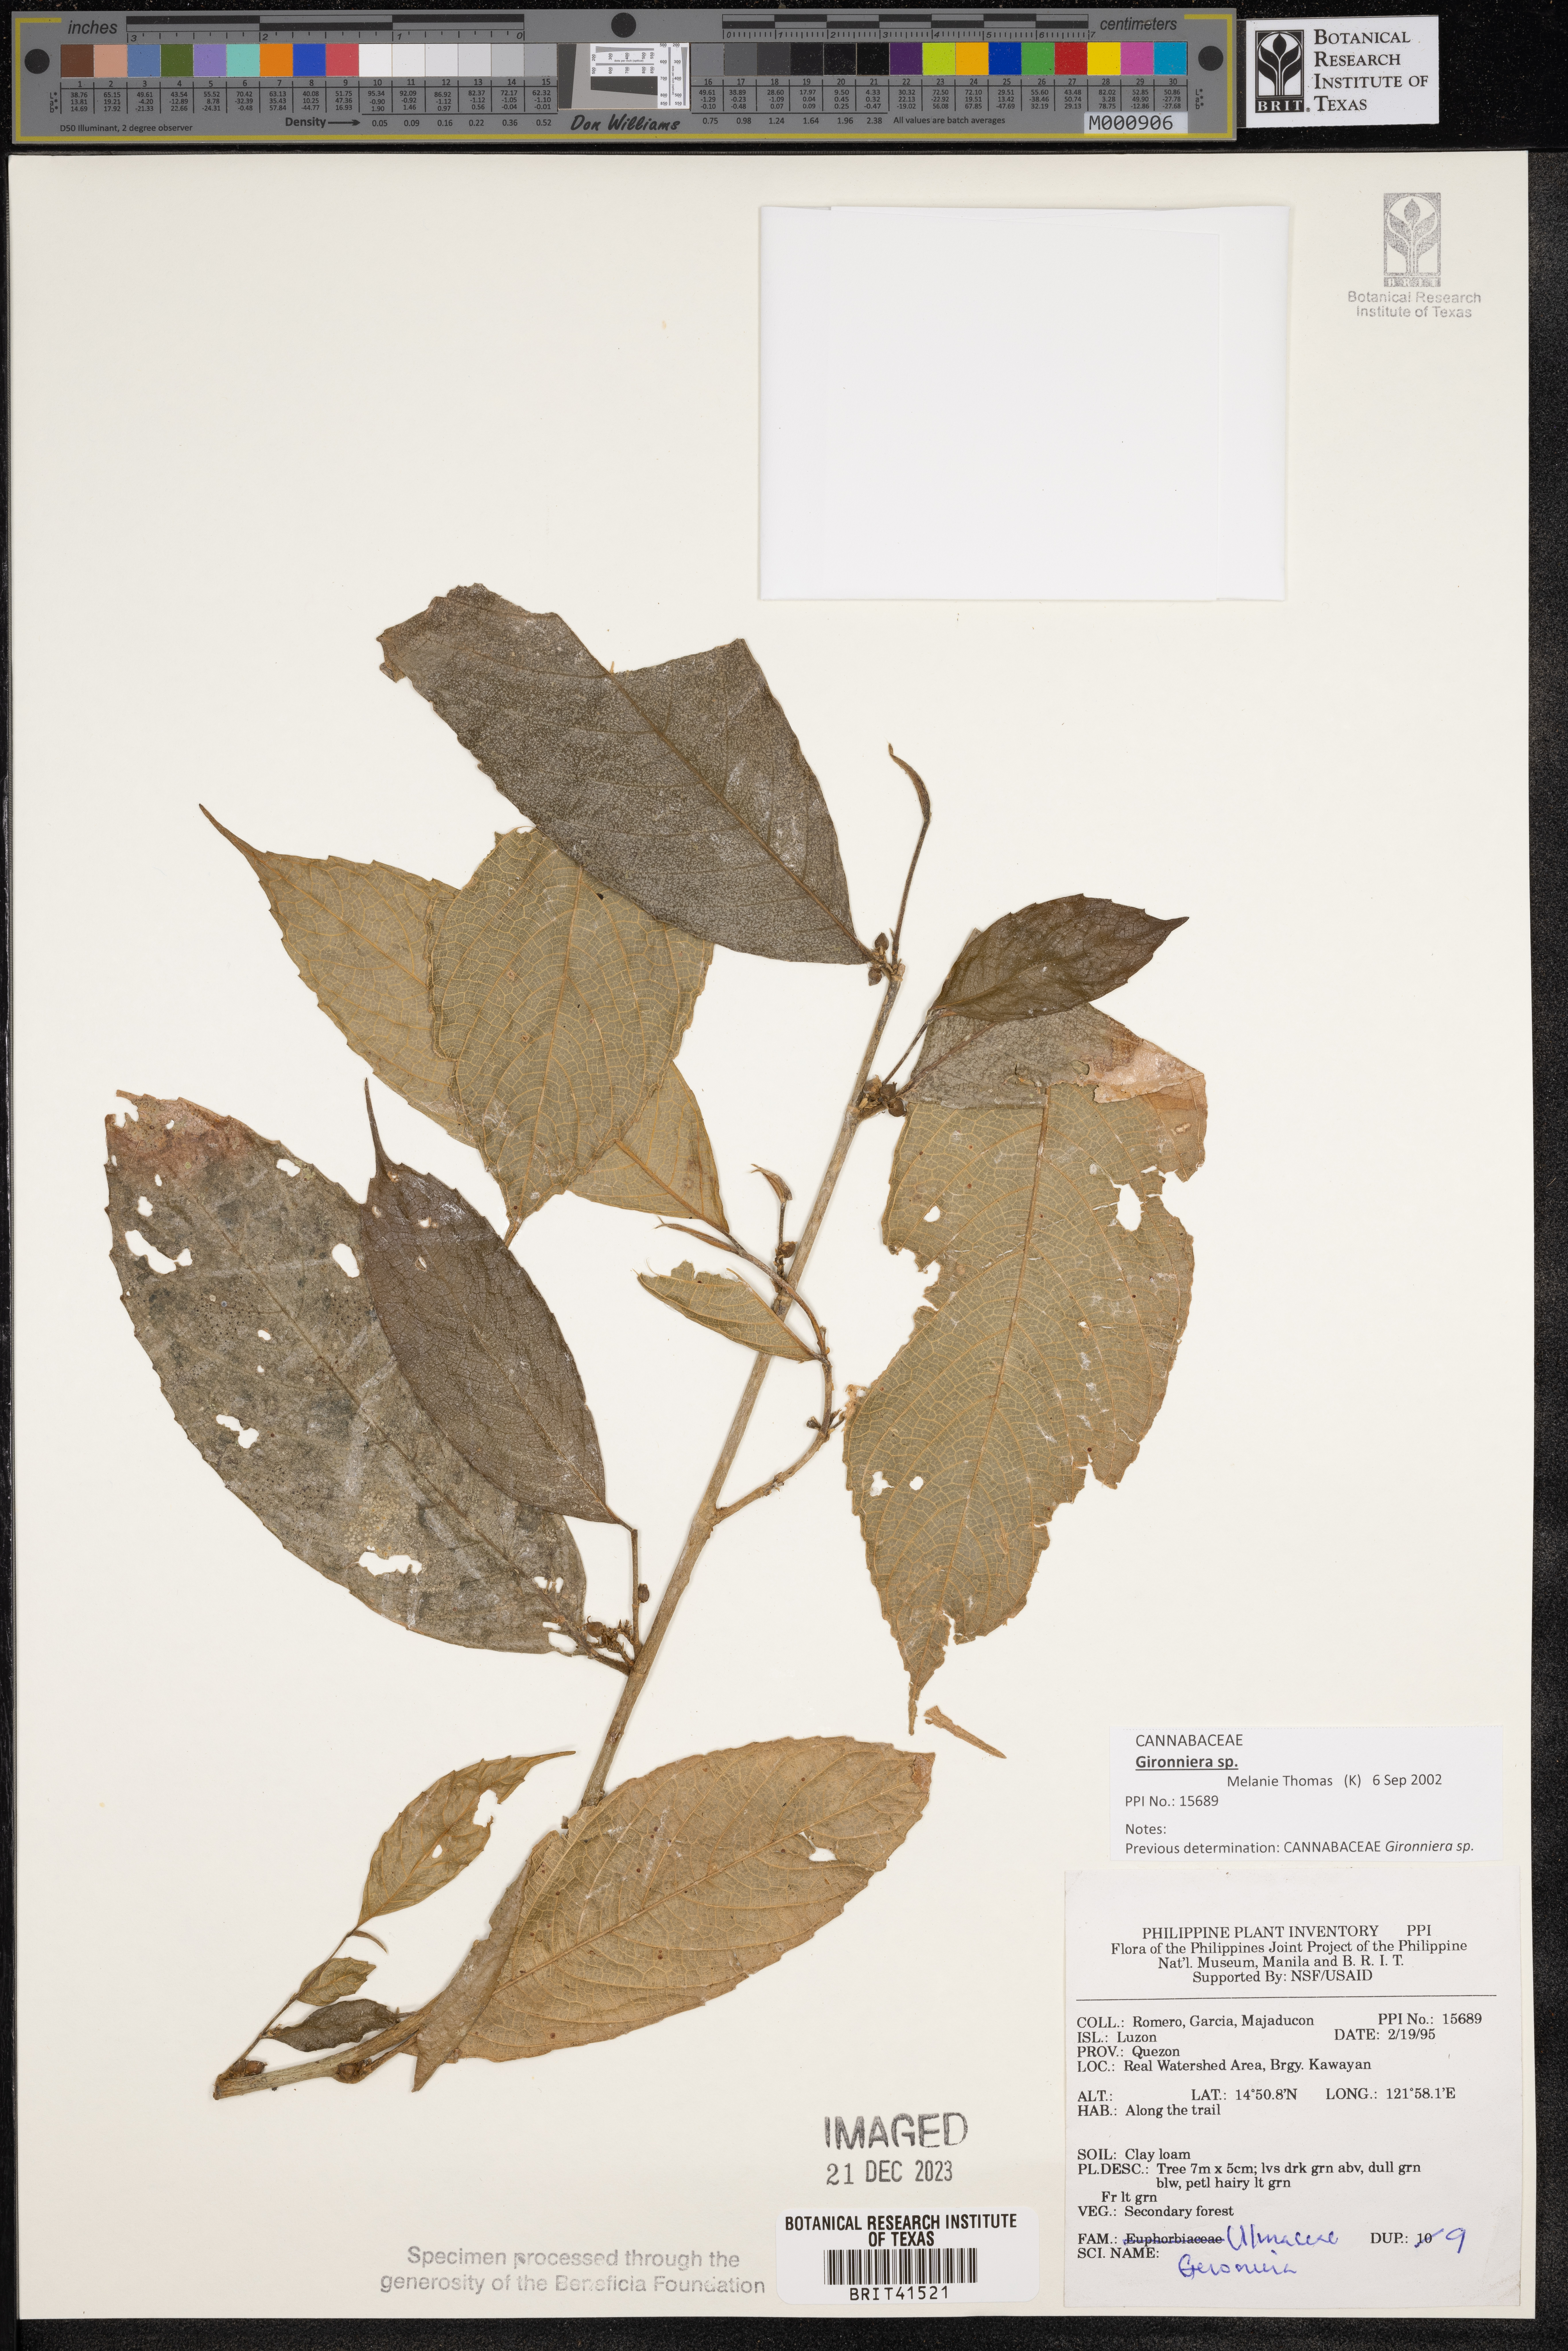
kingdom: Plantae
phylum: Tracheophyta
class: Magnoliopsida
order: Rosales
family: Cannabaceae
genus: Gironniera
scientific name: Gironniera
